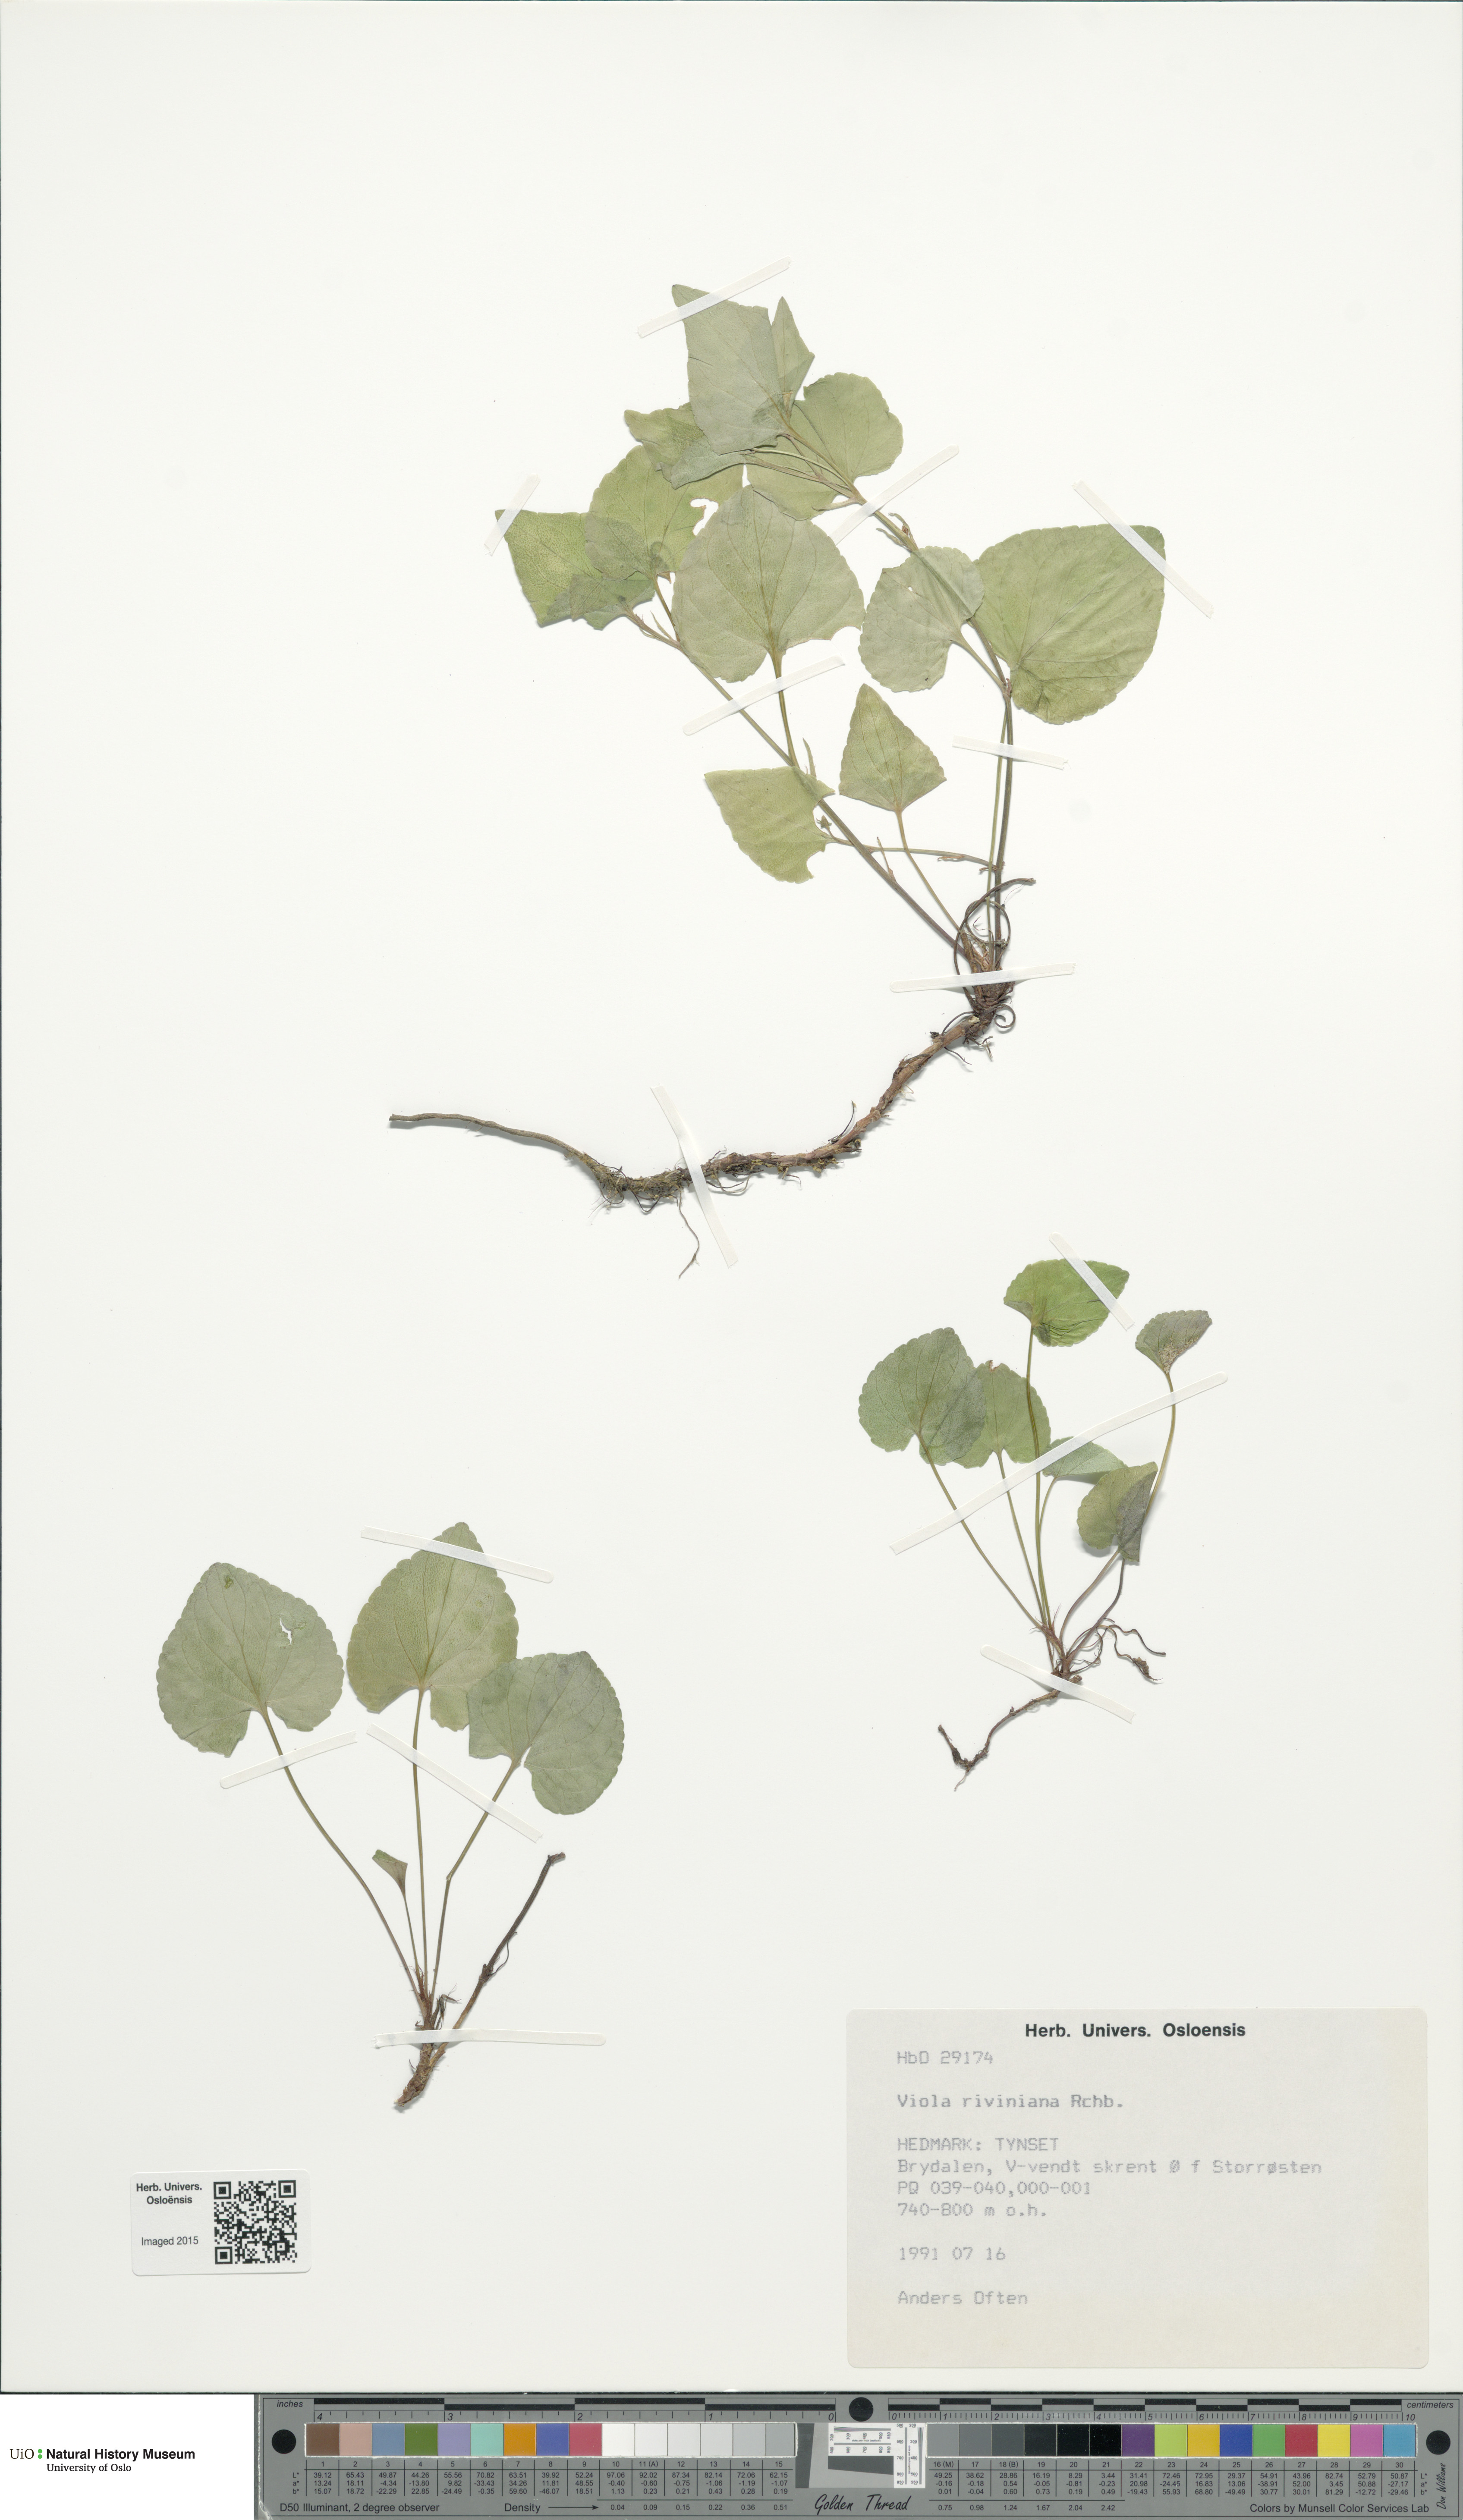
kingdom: Plantae
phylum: Tracheophyta
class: Magnoliopsida
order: Malpighiales
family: Violaceae
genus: Viola
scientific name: Viola riviniana
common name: Common dog-violet
